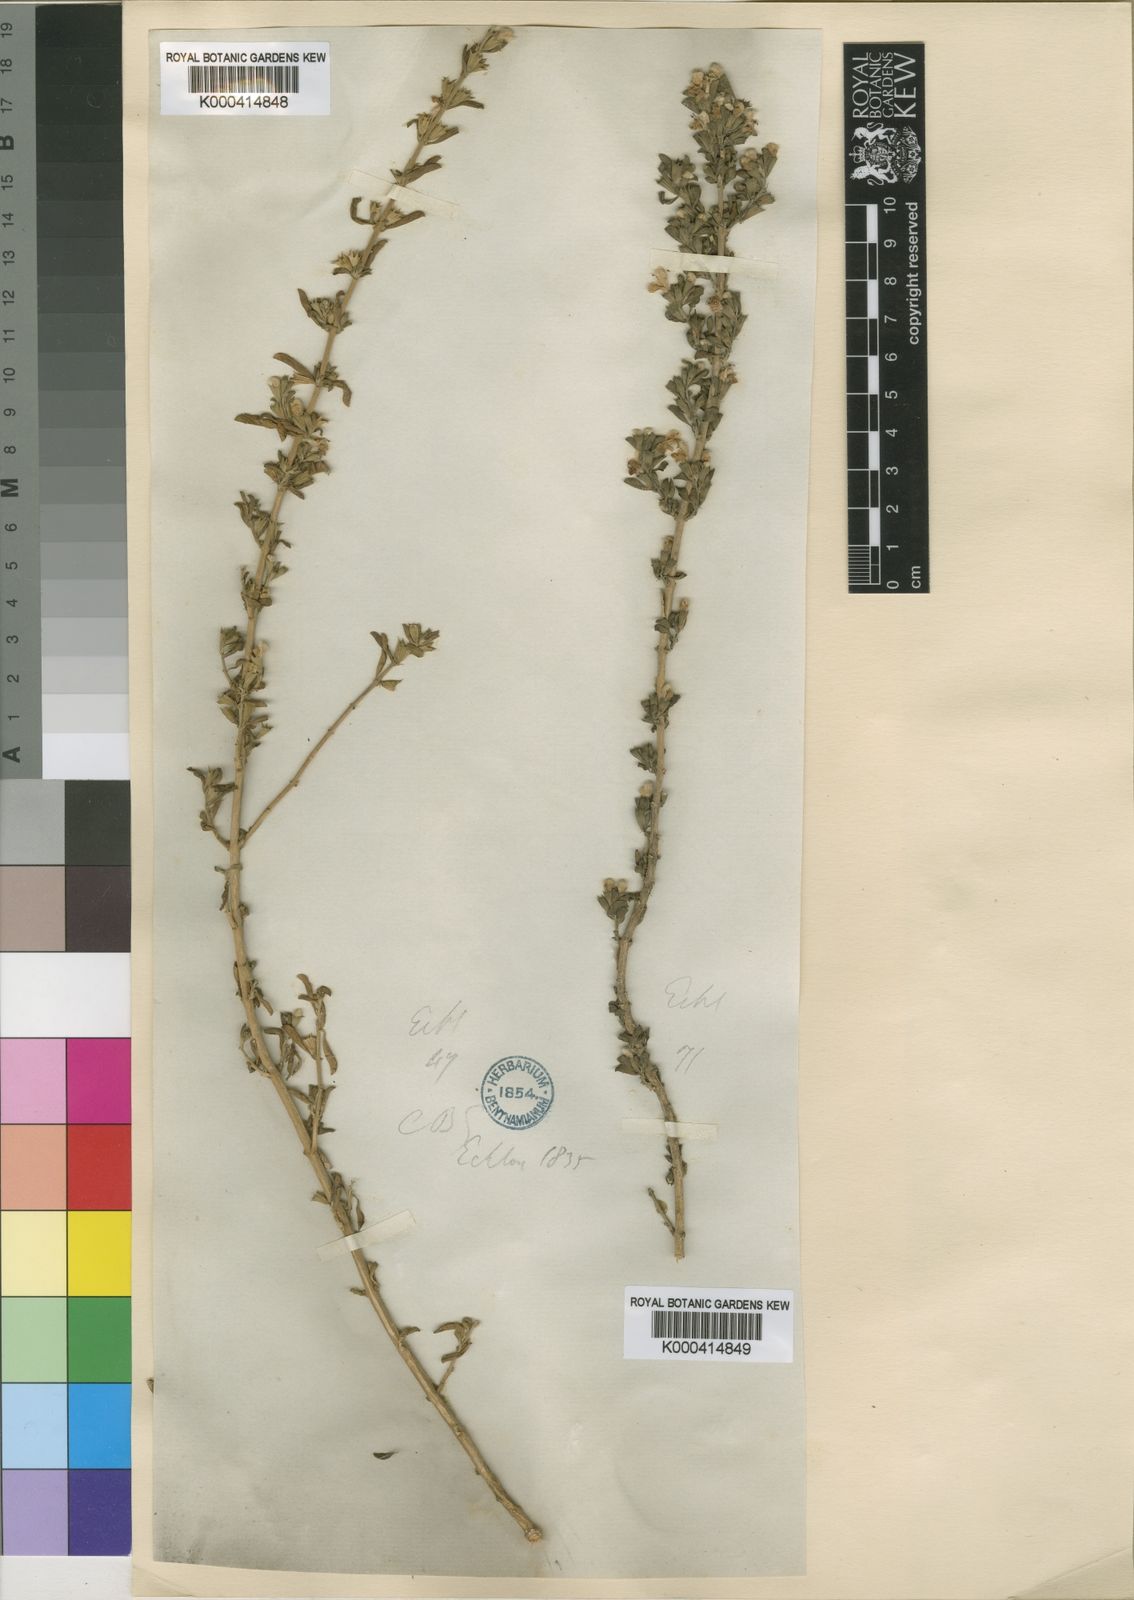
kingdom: Plantae
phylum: Tracheophyta
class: Magnoliopsida
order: Lamiales
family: Lamiaceae
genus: Leucas
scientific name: Leucas capensis
